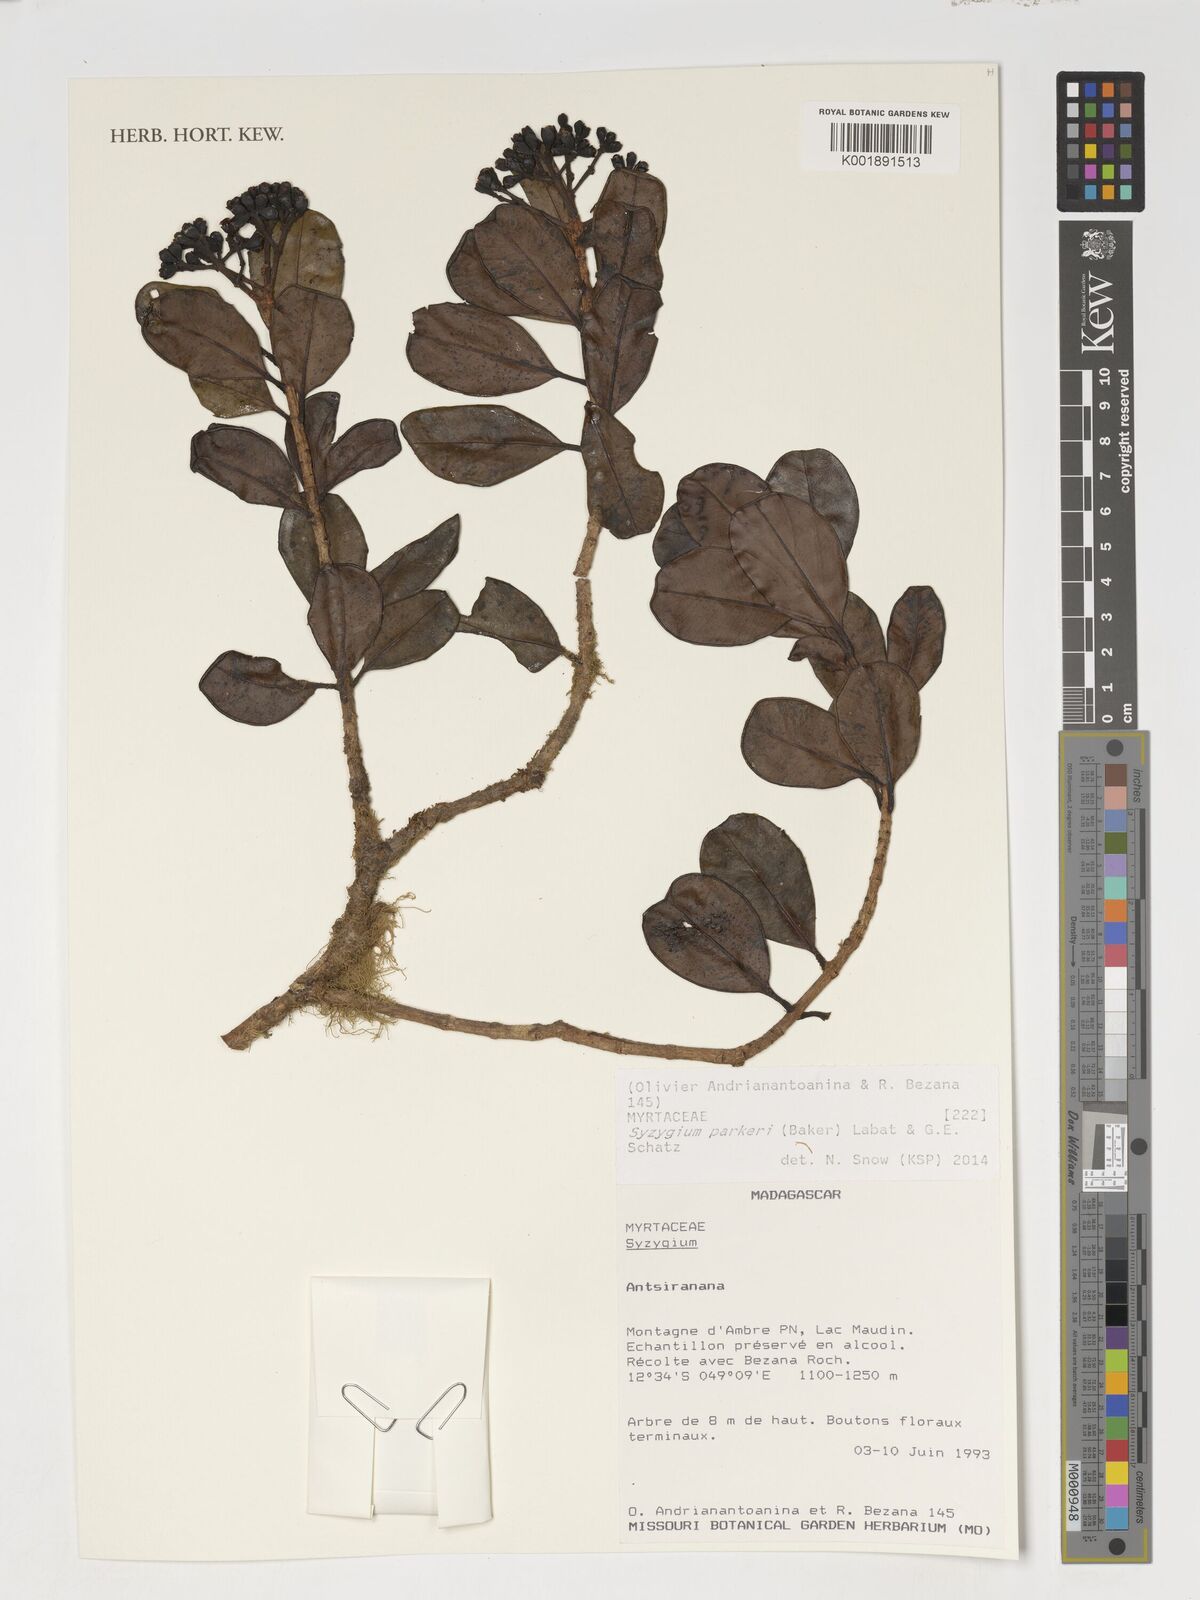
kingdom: Plantae
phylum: Tracheophyta
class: Magnoliopsida
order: Myrtales
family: Myrtaceae
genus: Syzygium
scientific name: Syzygium parkeri
